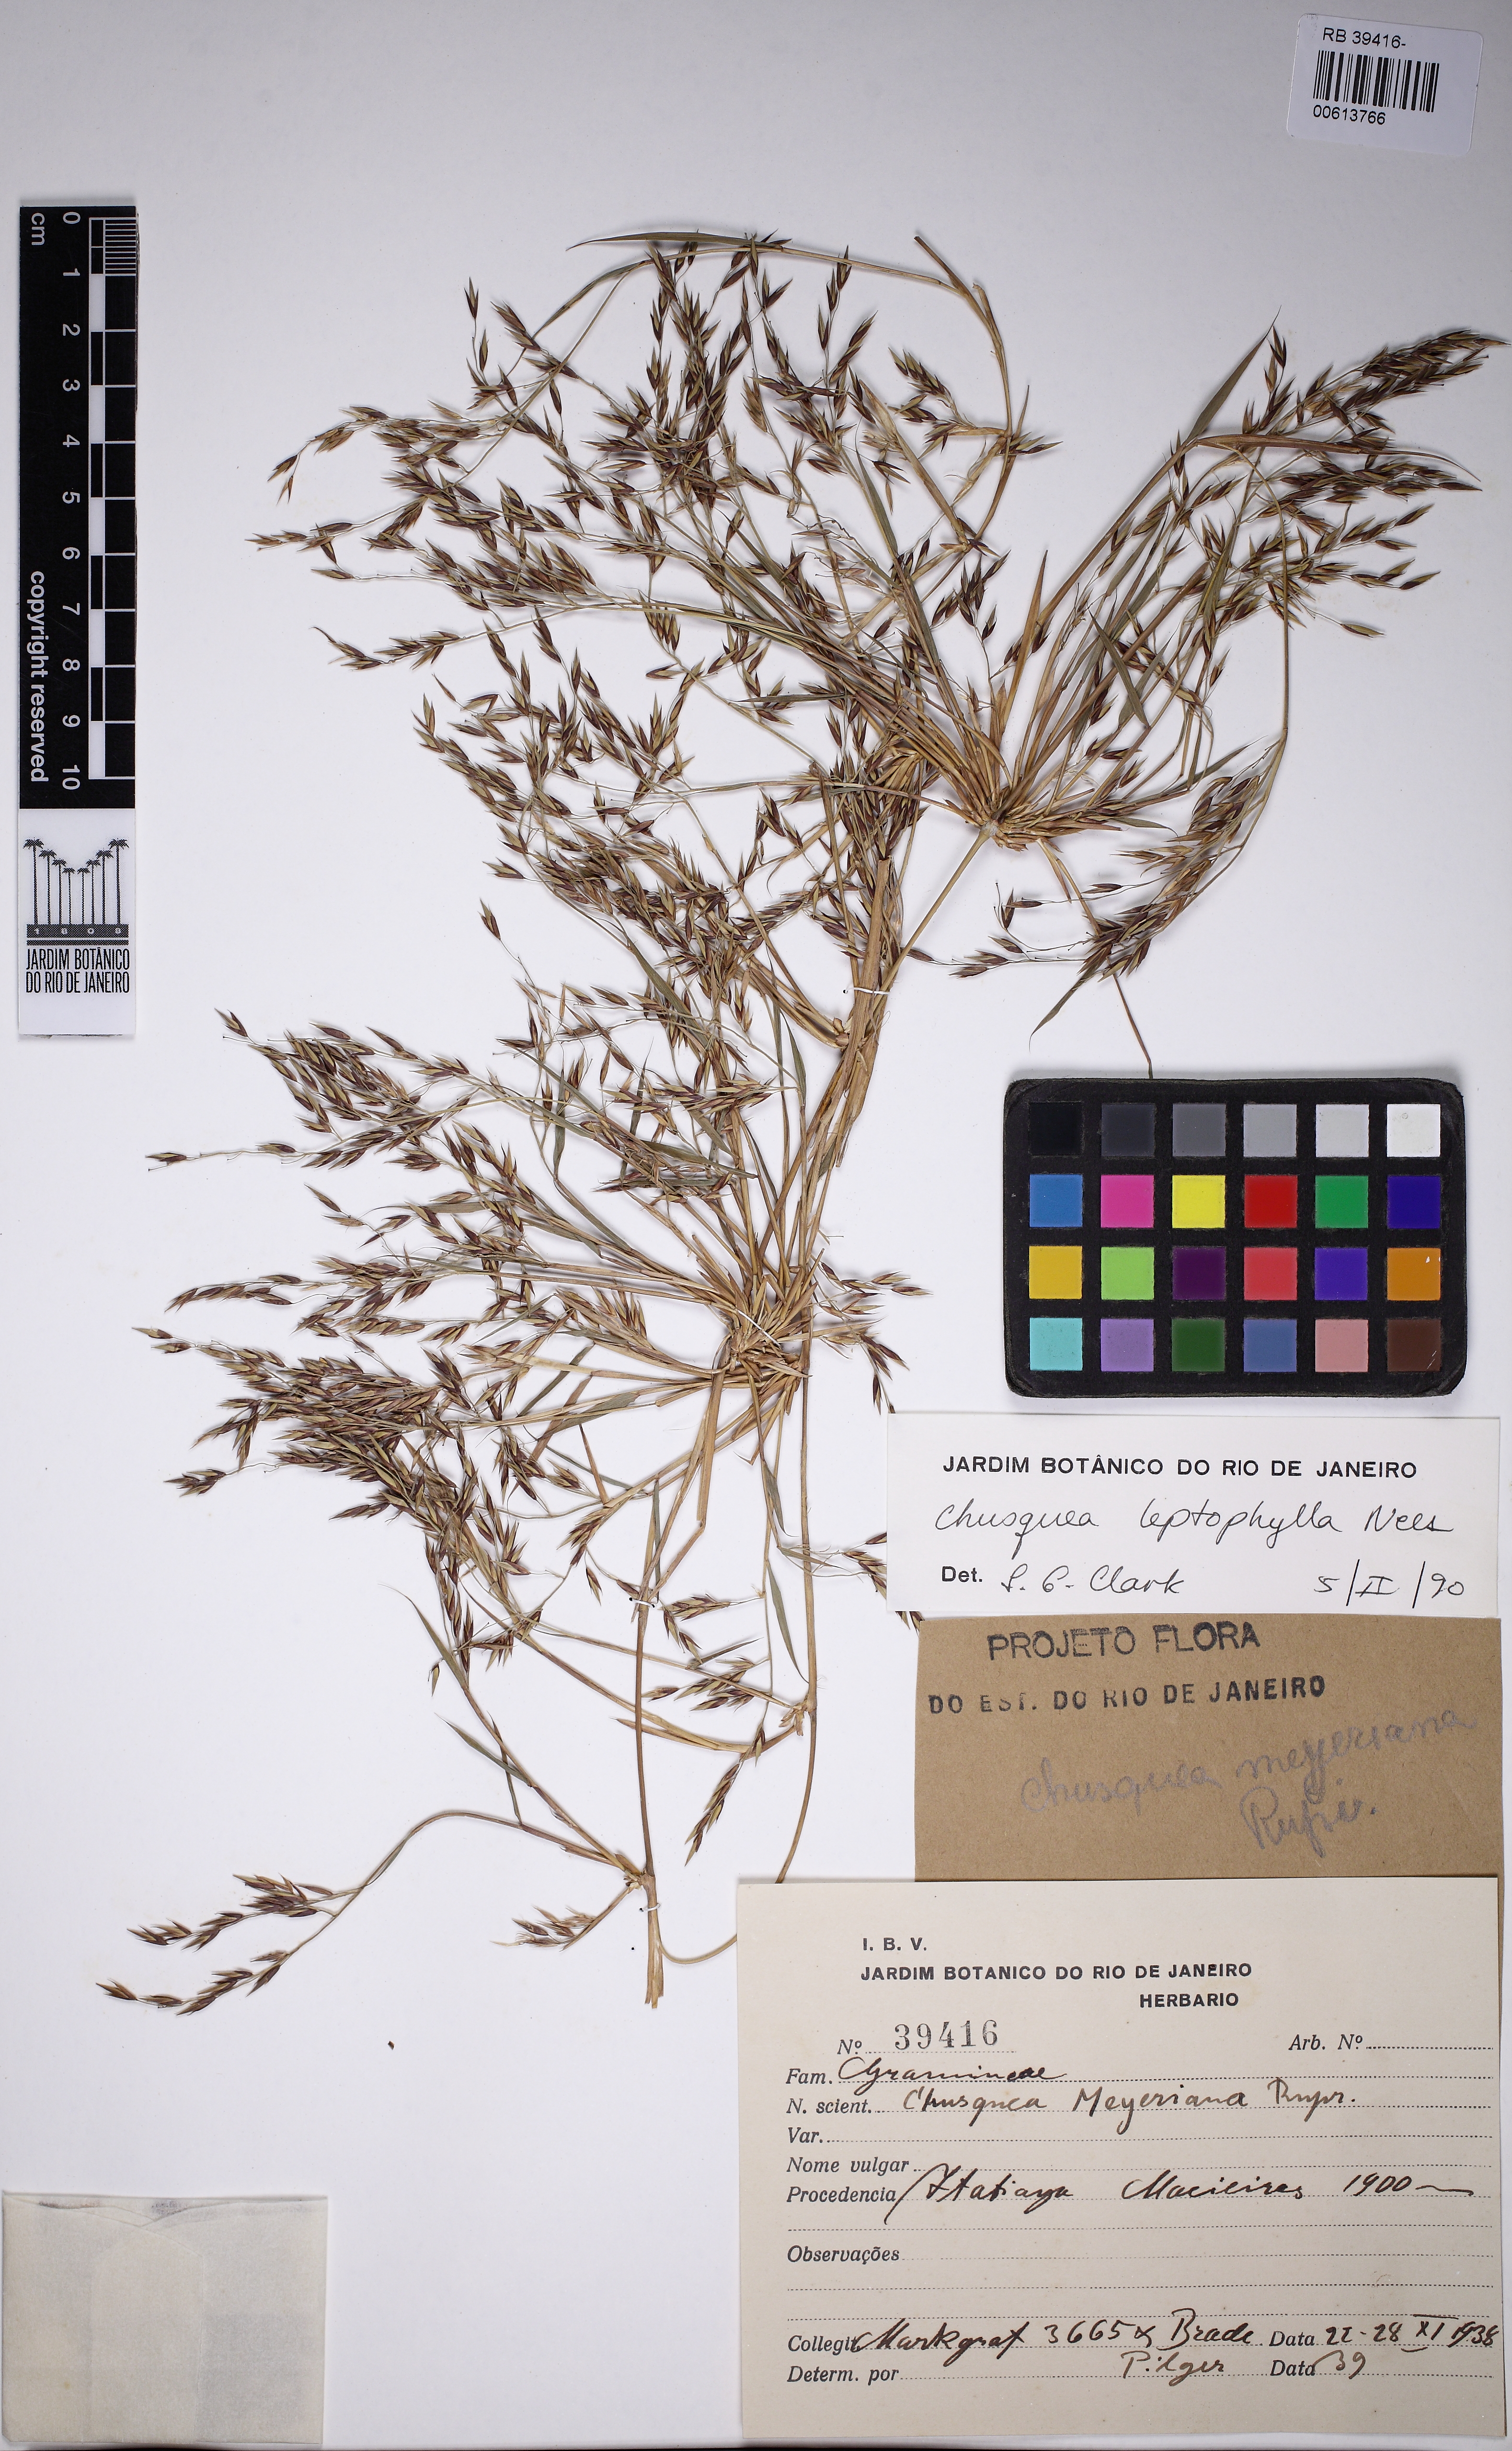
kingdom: Plantae
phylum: Tracheophyta
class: Liliopsida
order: Poales
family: Poaceae
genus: Chusquea
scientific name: Chusquea acuminata
